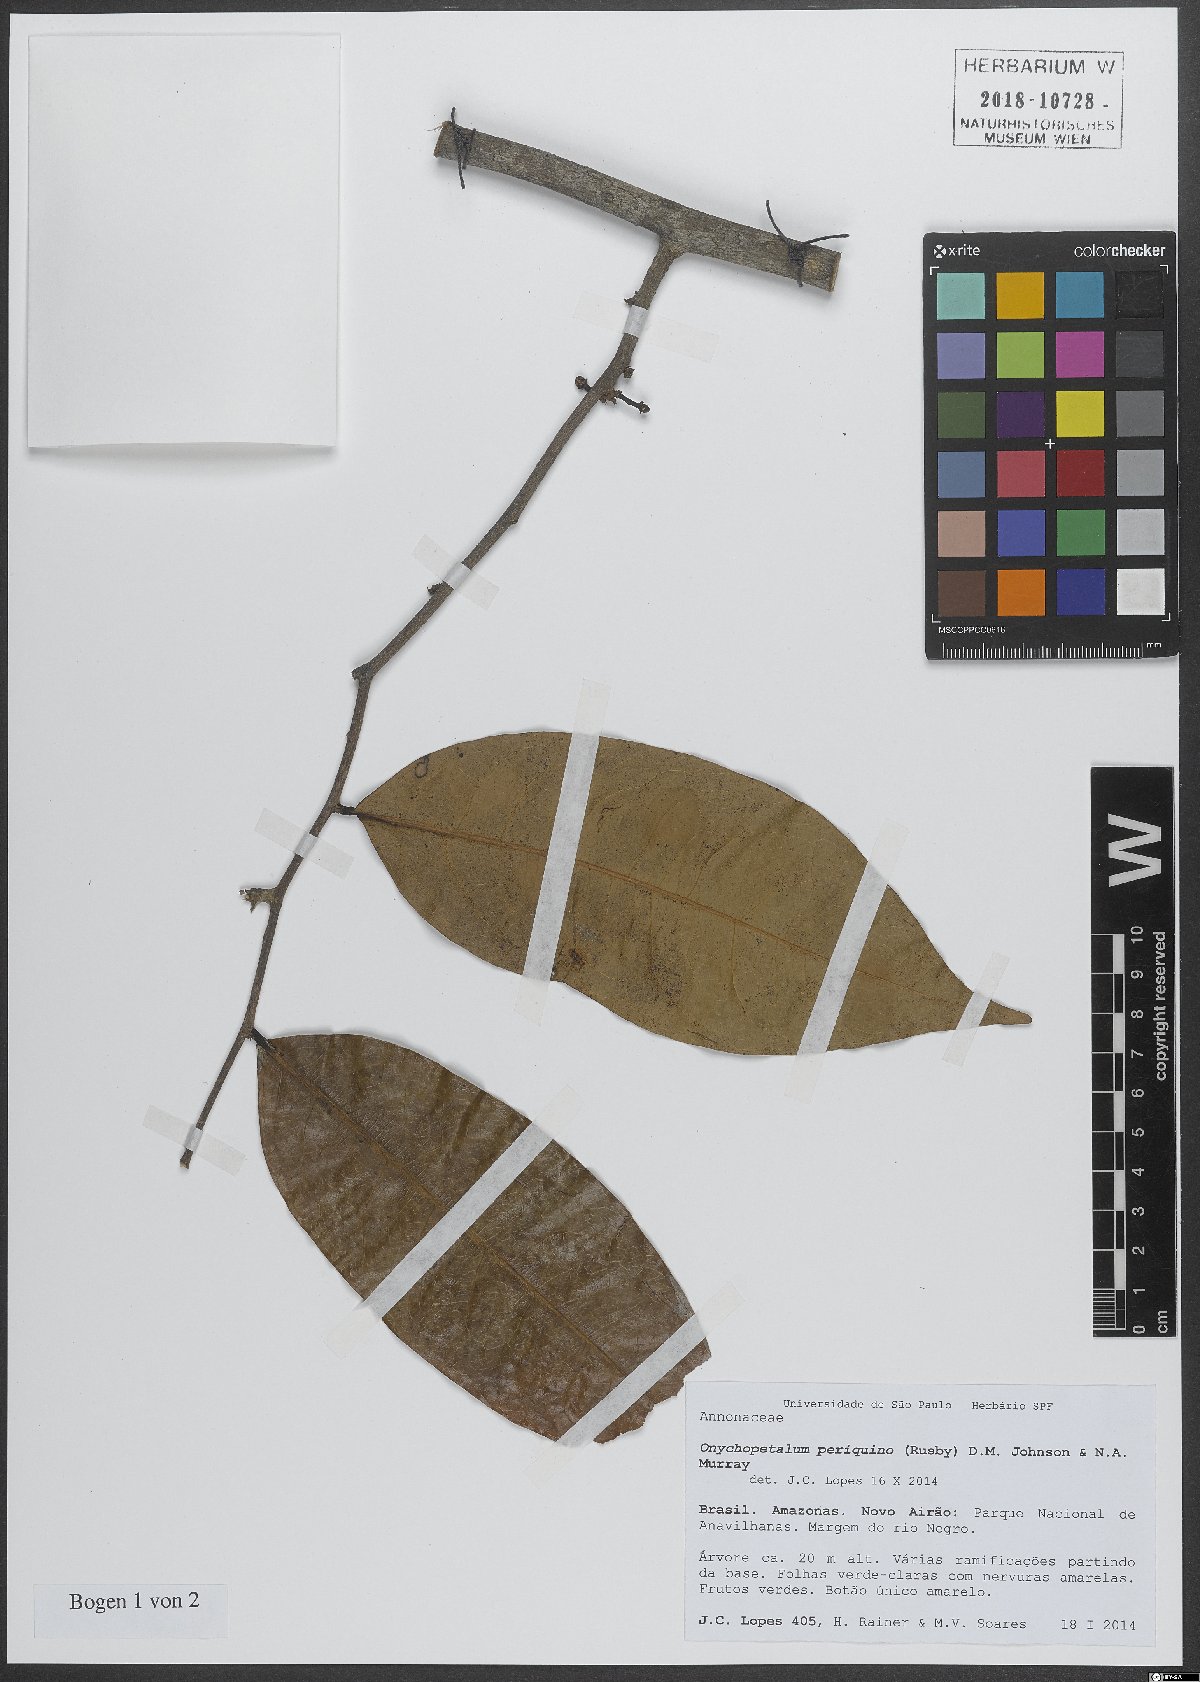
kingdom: Plantae
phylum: Tracheophyta
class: Magnoliopsida
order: Magnoliales
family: Annonaceae
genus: Onychopetalum
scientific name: Onychopetalum periquino
